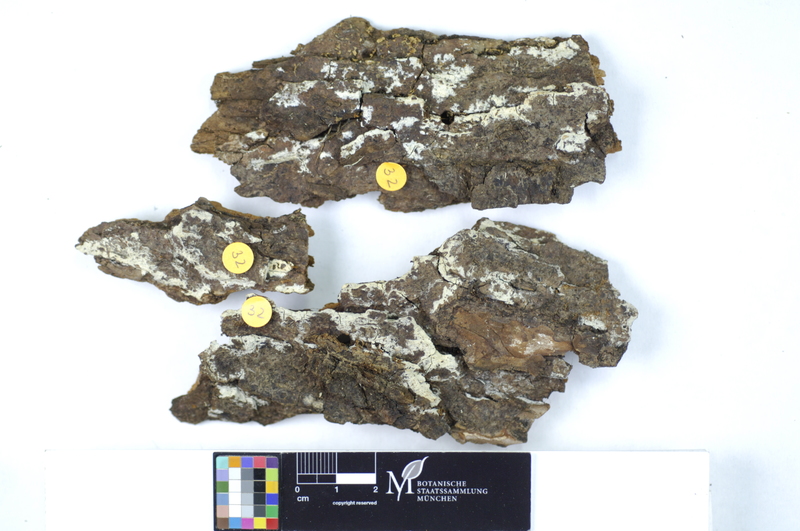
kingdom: Fungi
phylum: Basidiomycota
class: Agaricomycetes
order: Hymenochaetales
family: Rickenellaceae
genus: Peniophorella
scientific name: Peniophorella pubera
